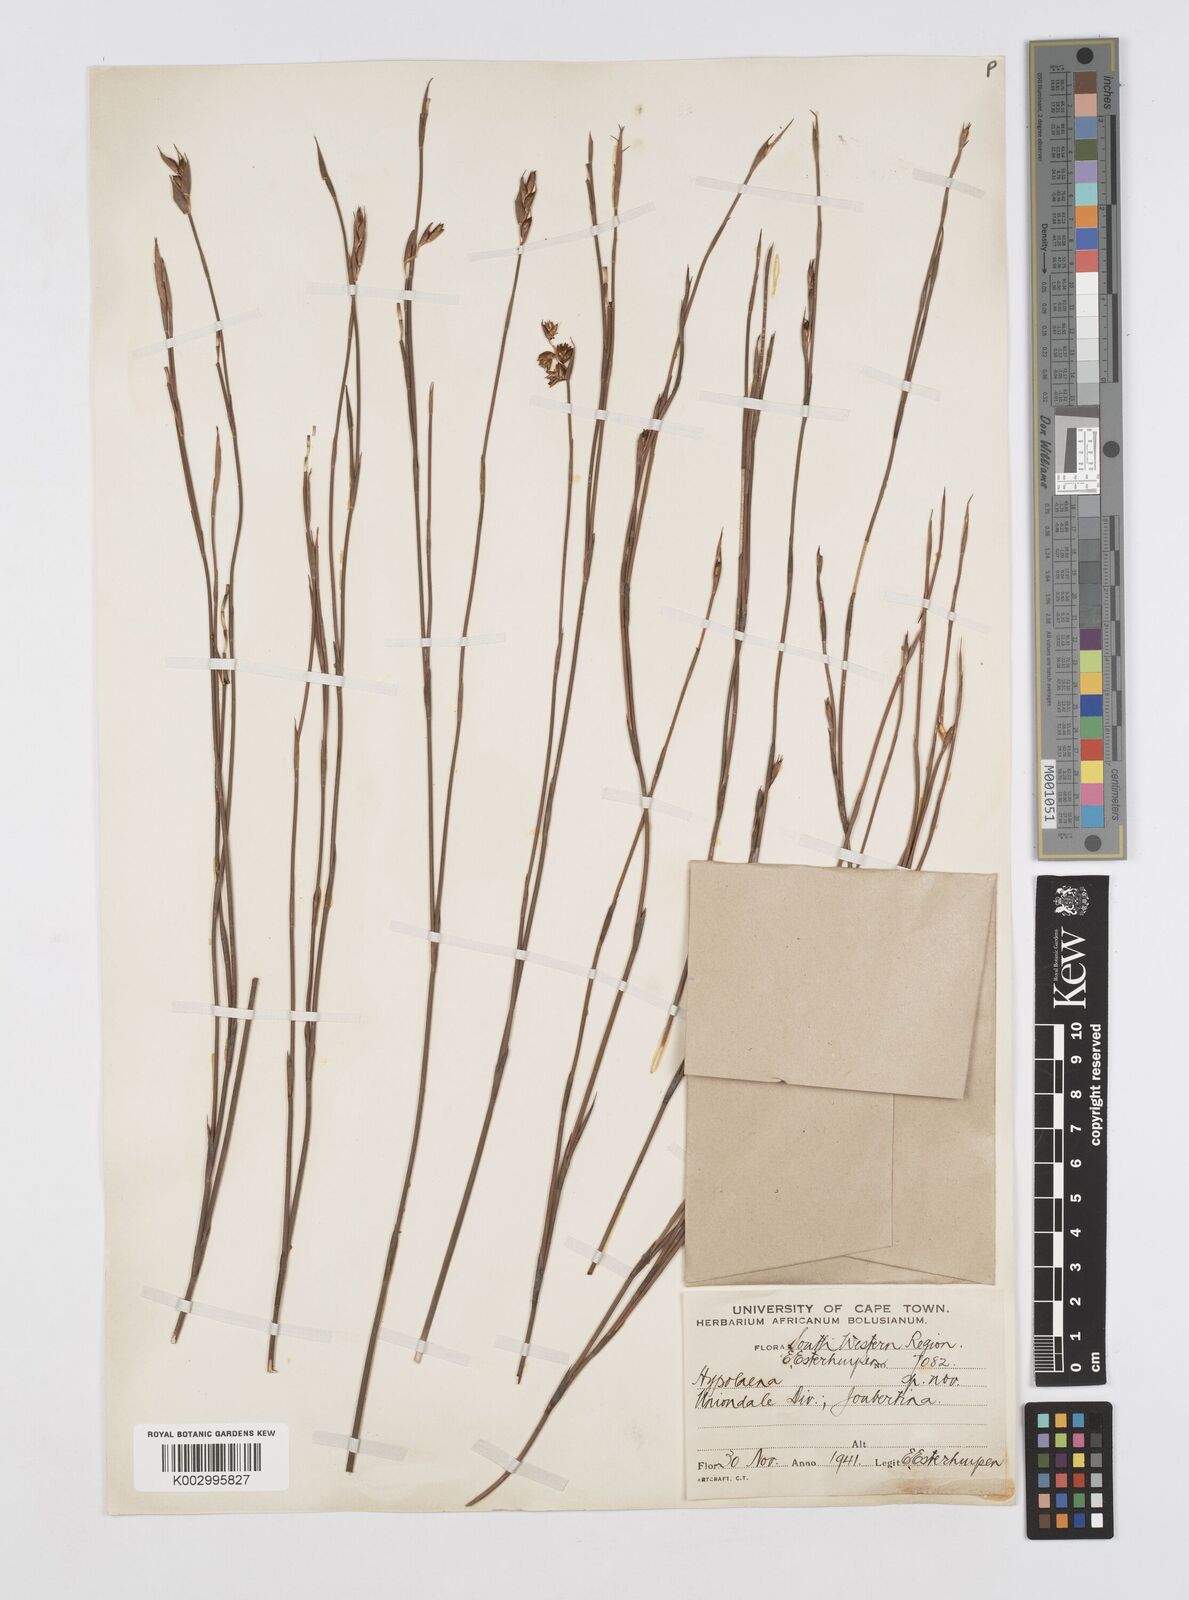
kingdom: Plantae
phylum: Tracheophyta
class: Liliopsida
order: Poales
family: Restionaceae
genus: Mastersiella
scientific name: Mastersiella spathulata
